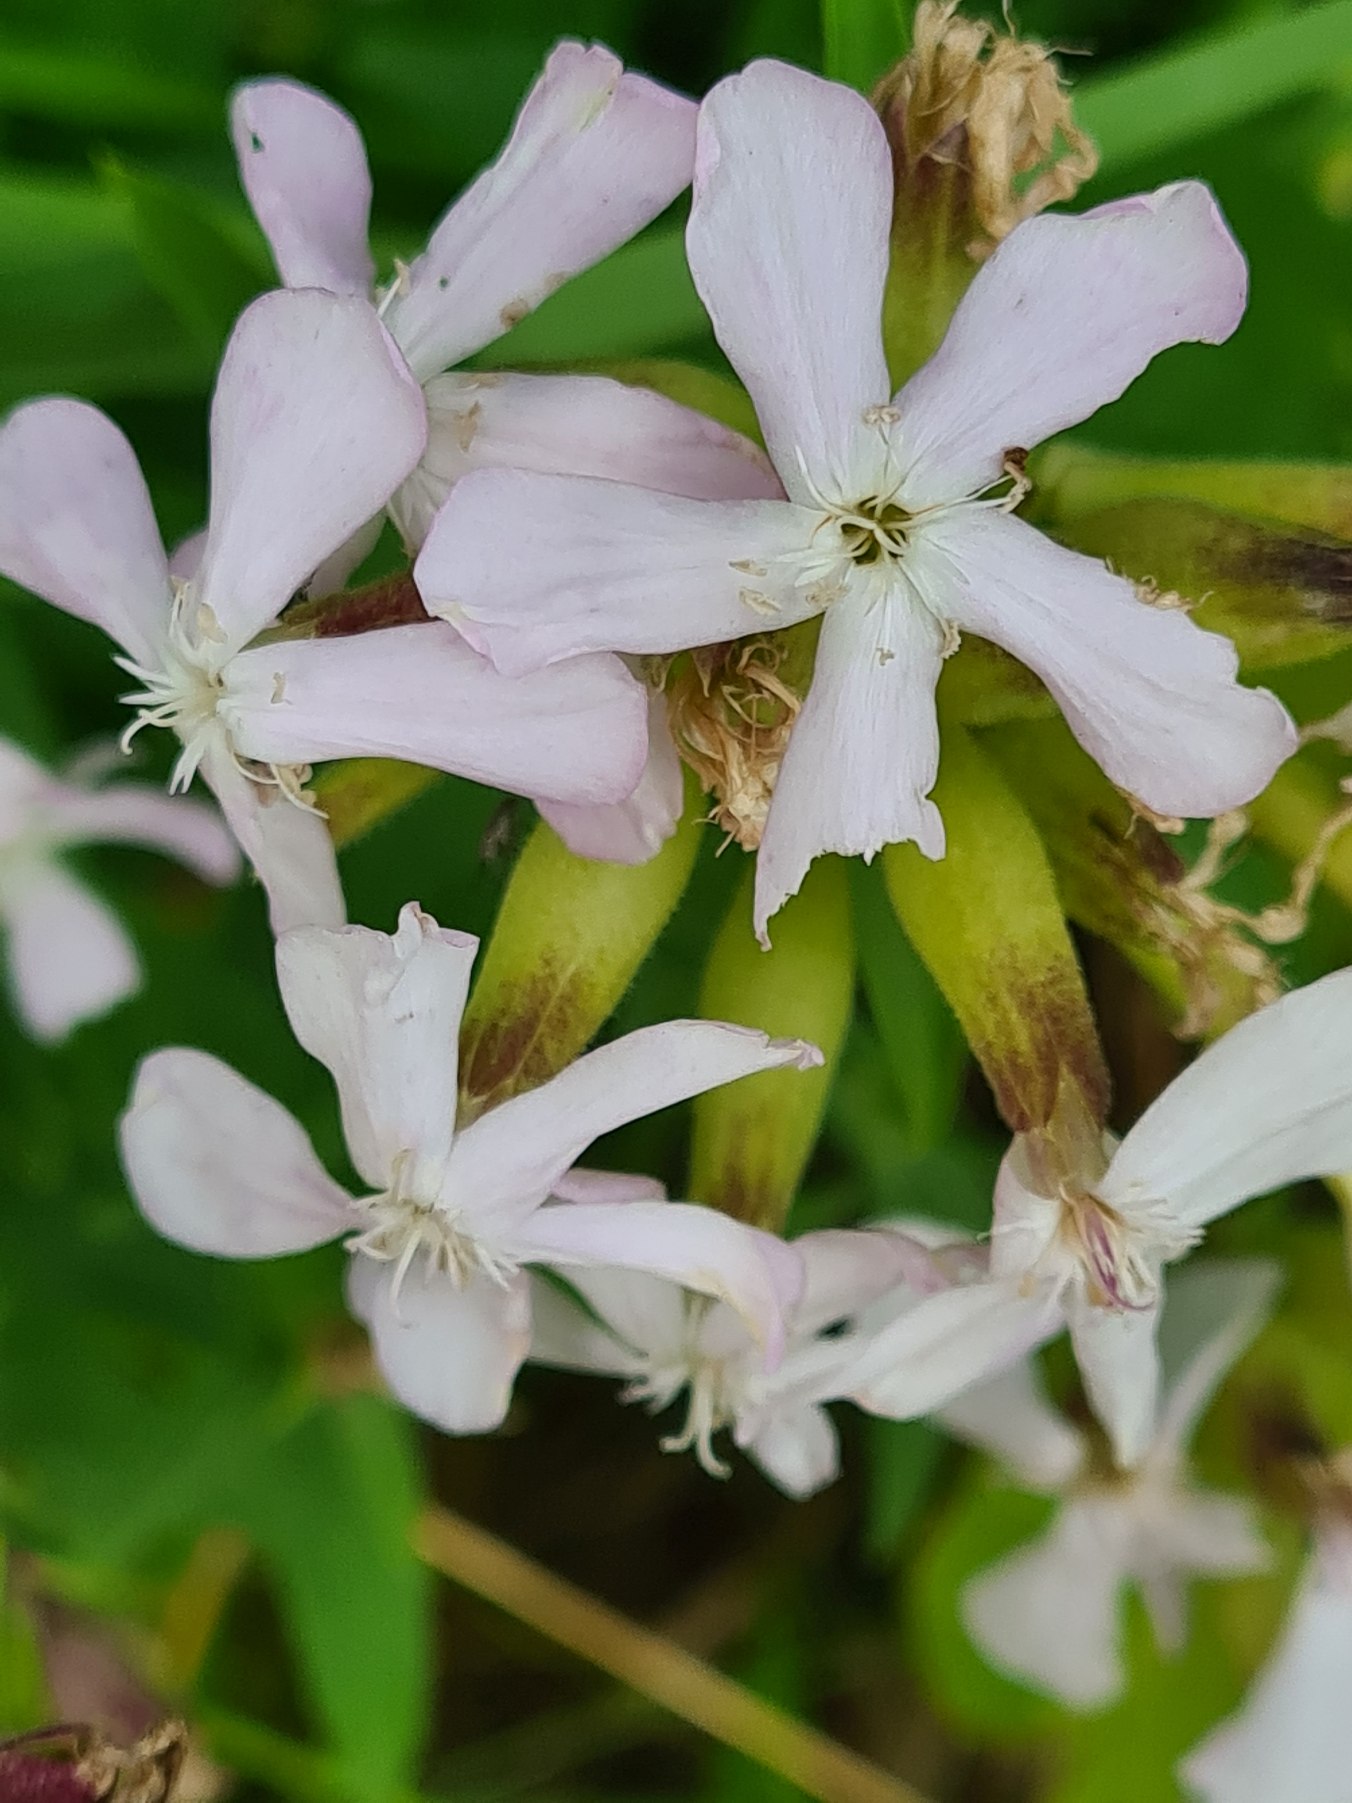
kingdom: Plantae
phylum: Tracheophyta
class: Magnoliopsida
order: Caryophyllales
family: Caryophyllaceae
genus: Saponaria
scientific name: Saponaria officinalis
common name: Sæbeurt
